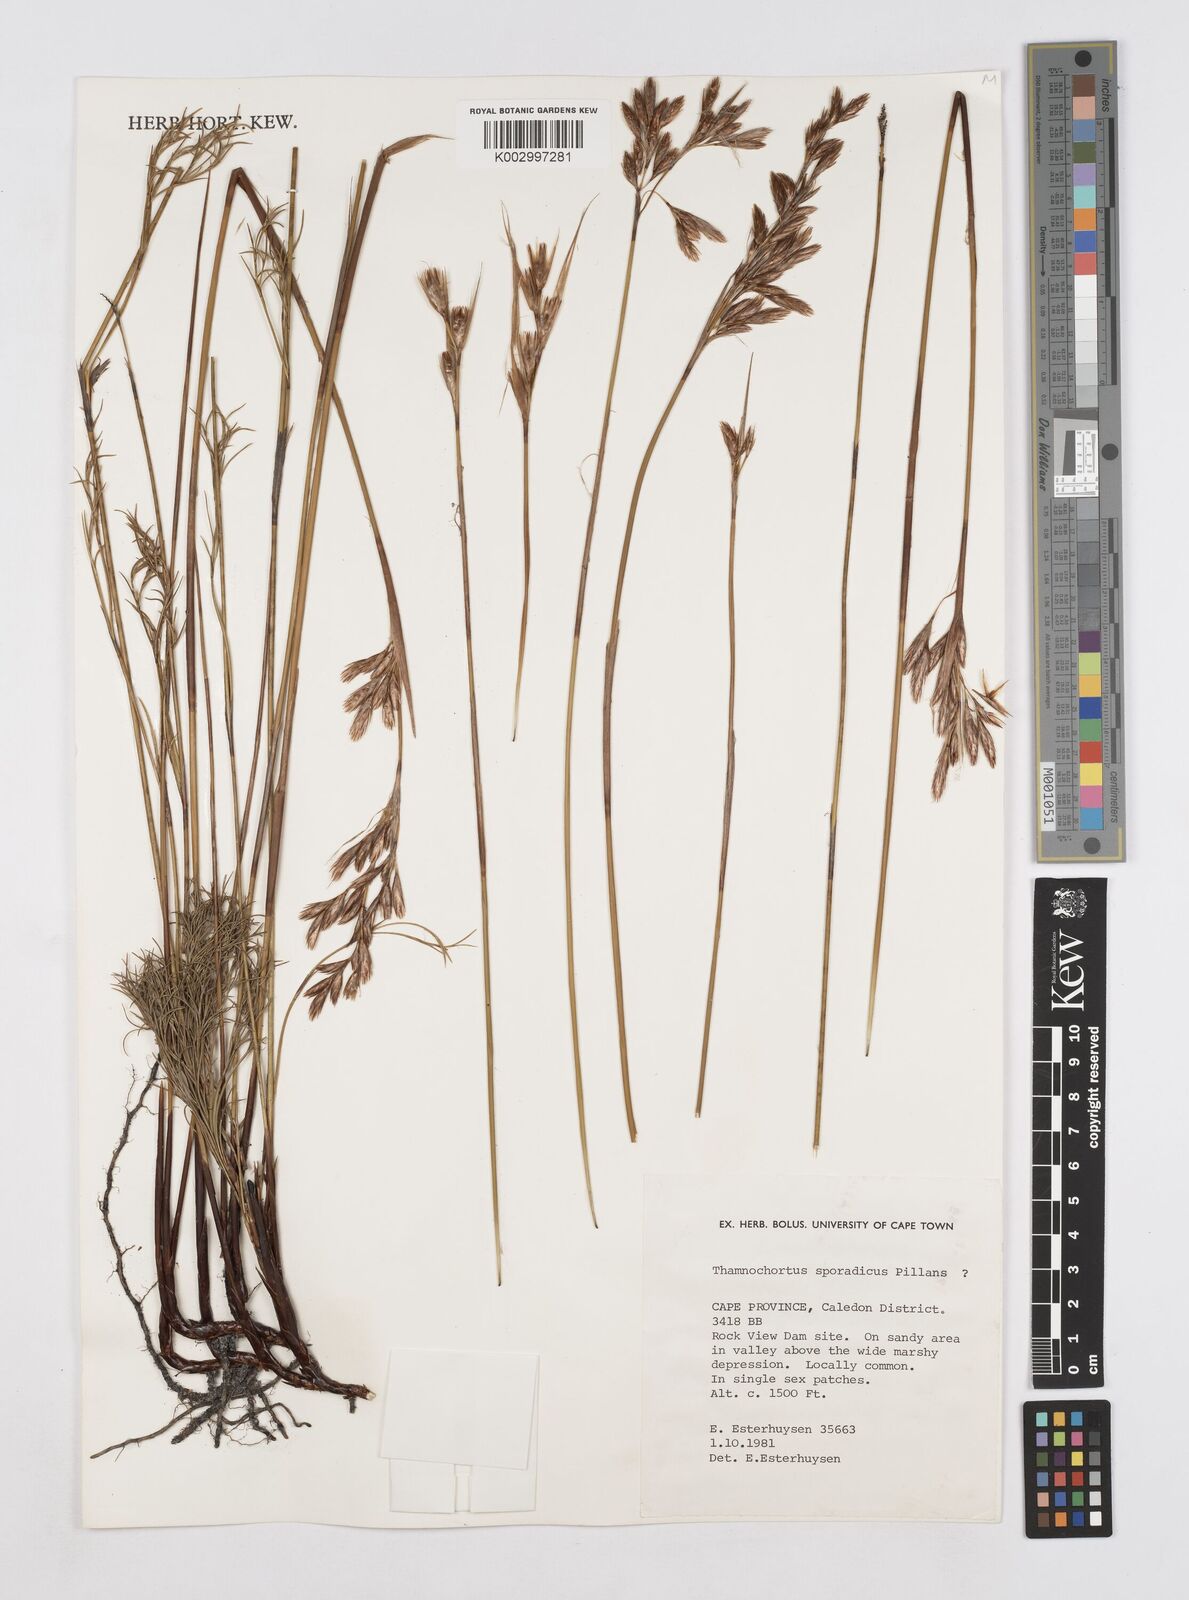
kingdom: Plantae
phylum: Tracheophyta
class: Liliopsida
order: Poales
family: Restionaceae
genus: Thamnochortus
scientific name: Thamnochortus sporadicus
